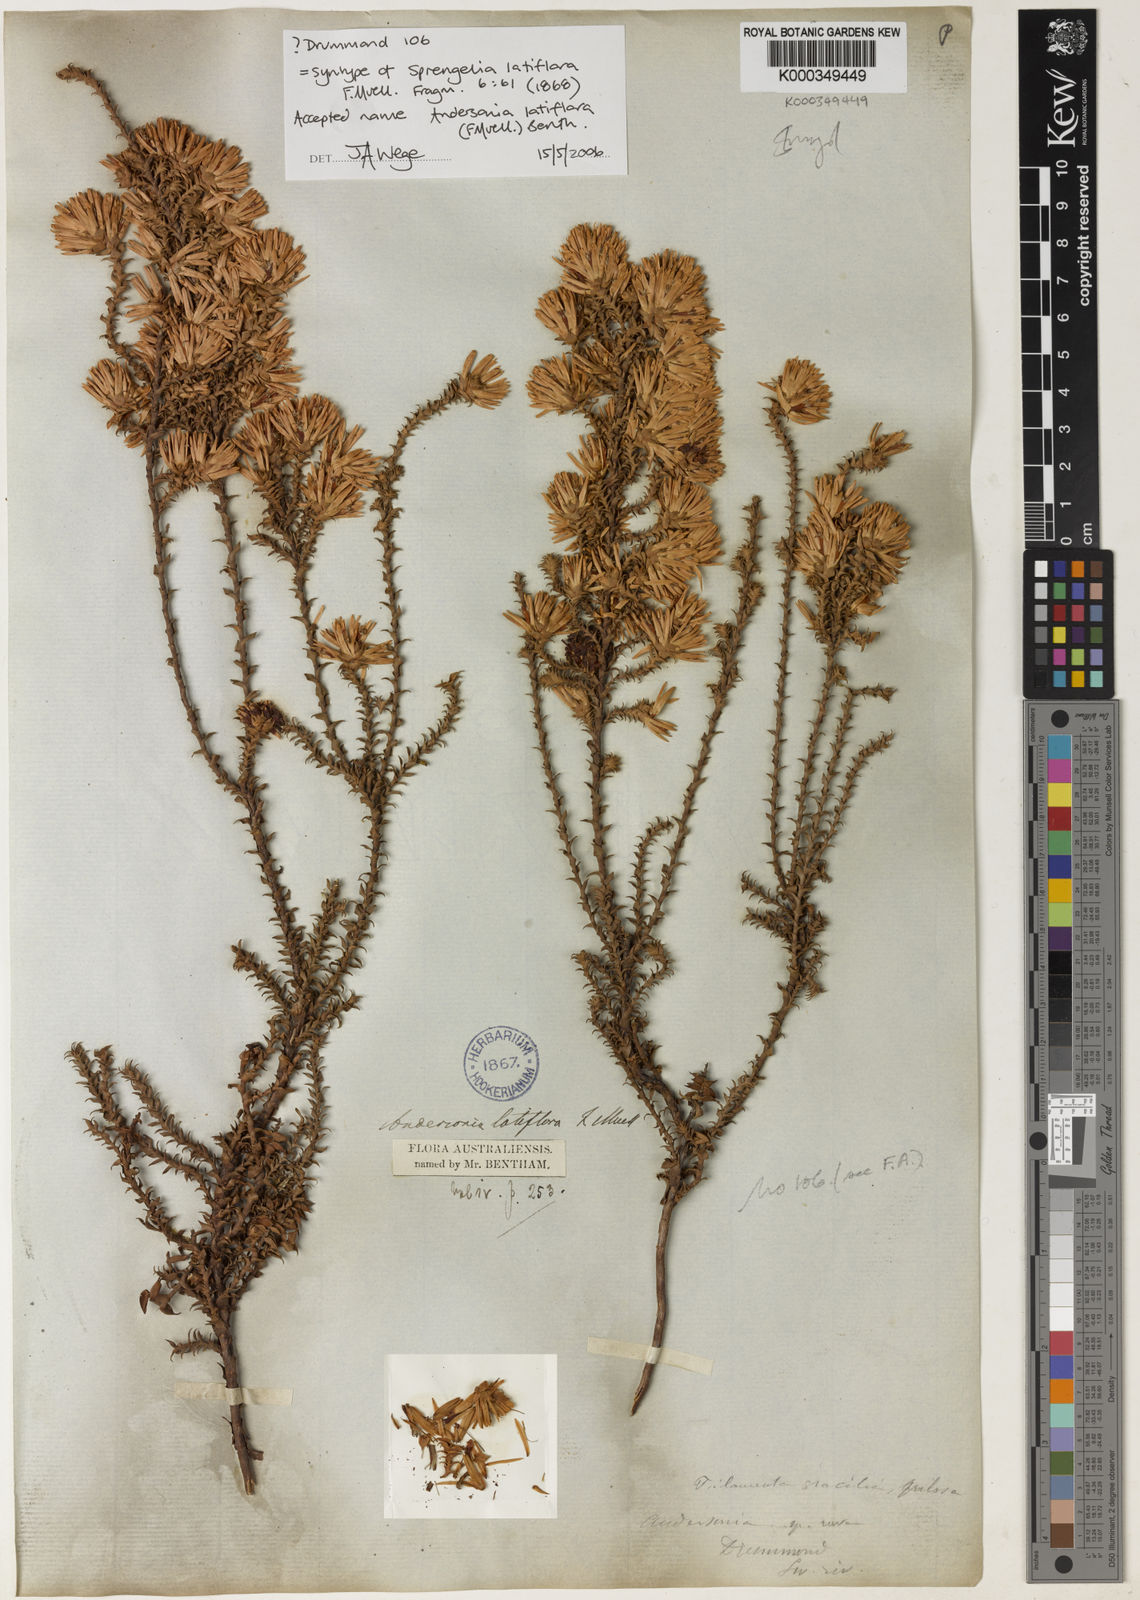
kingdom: Plantae
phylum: Tracheophyta
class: Magnoliopsida
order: Ericales
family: Ericaceae
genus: Andersonia
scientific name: Andersonia latiflora
